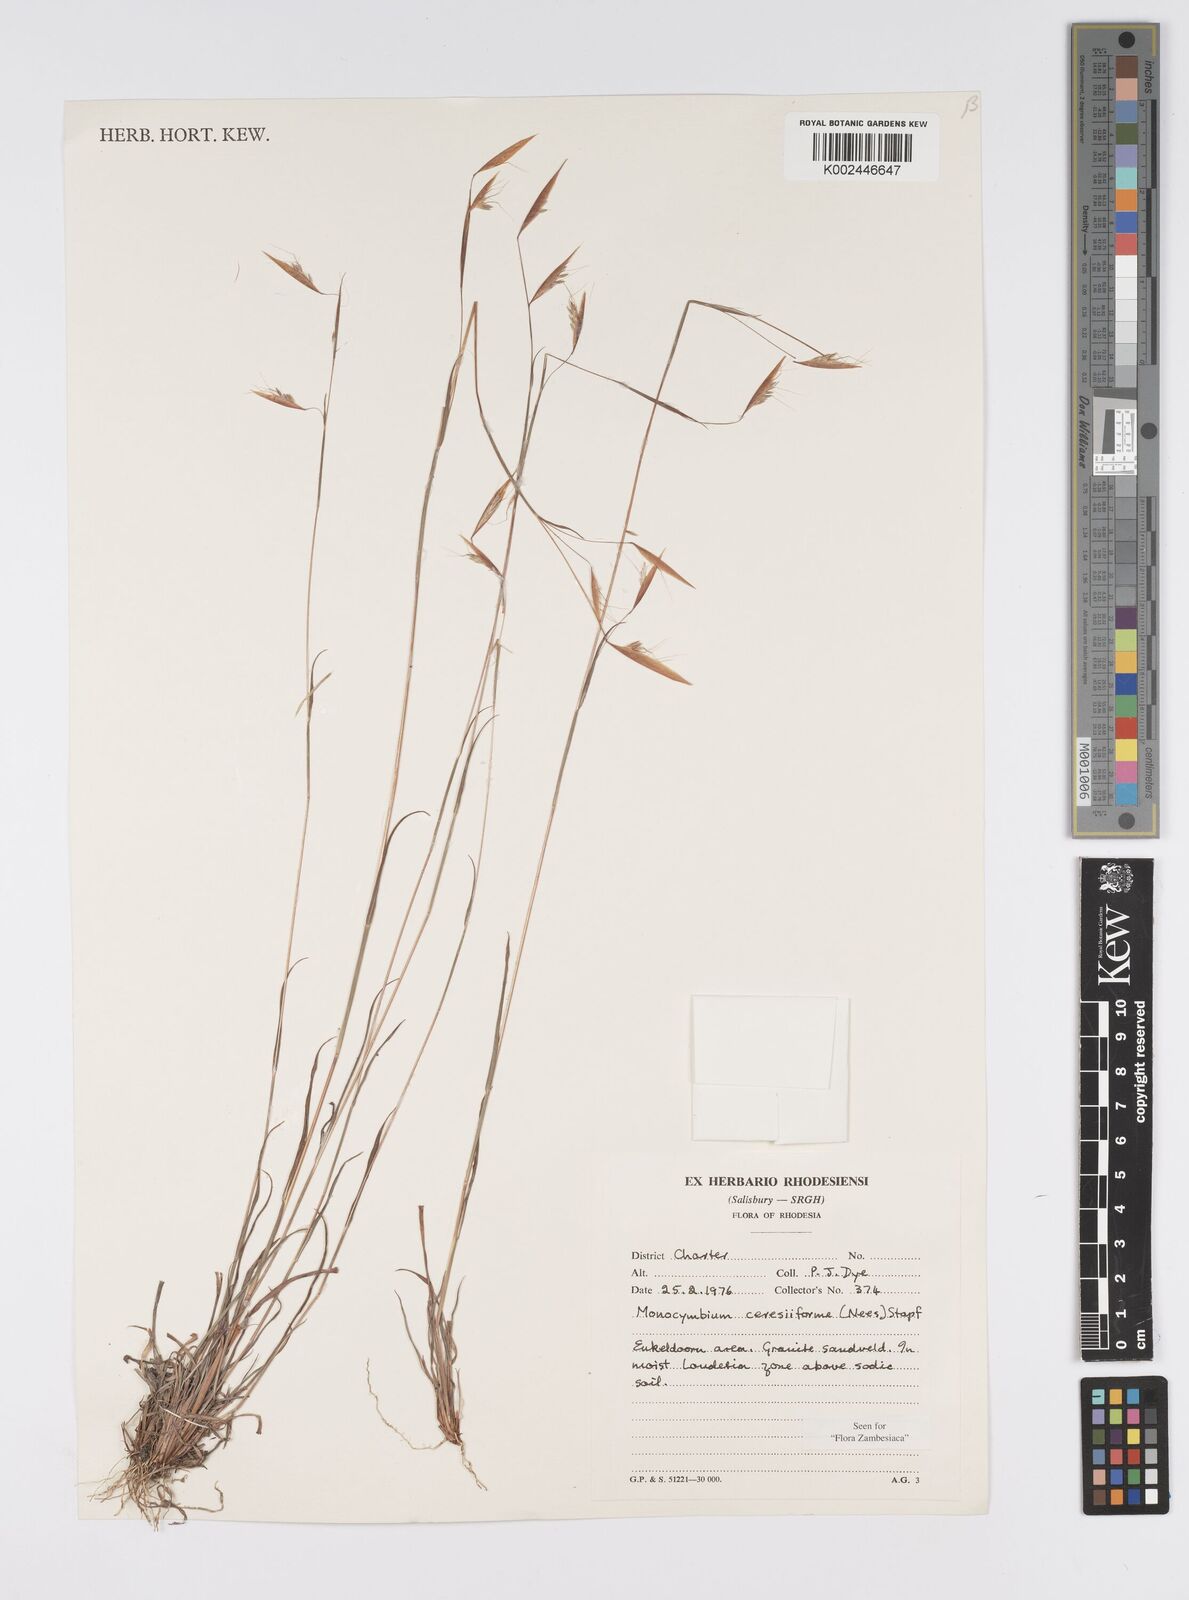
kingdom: Plantae
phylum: Tracheophyta
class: Liliopsida
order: Poales
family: Poaceae
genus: Monocymbium
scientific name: Monocymbium ceresiiforme
